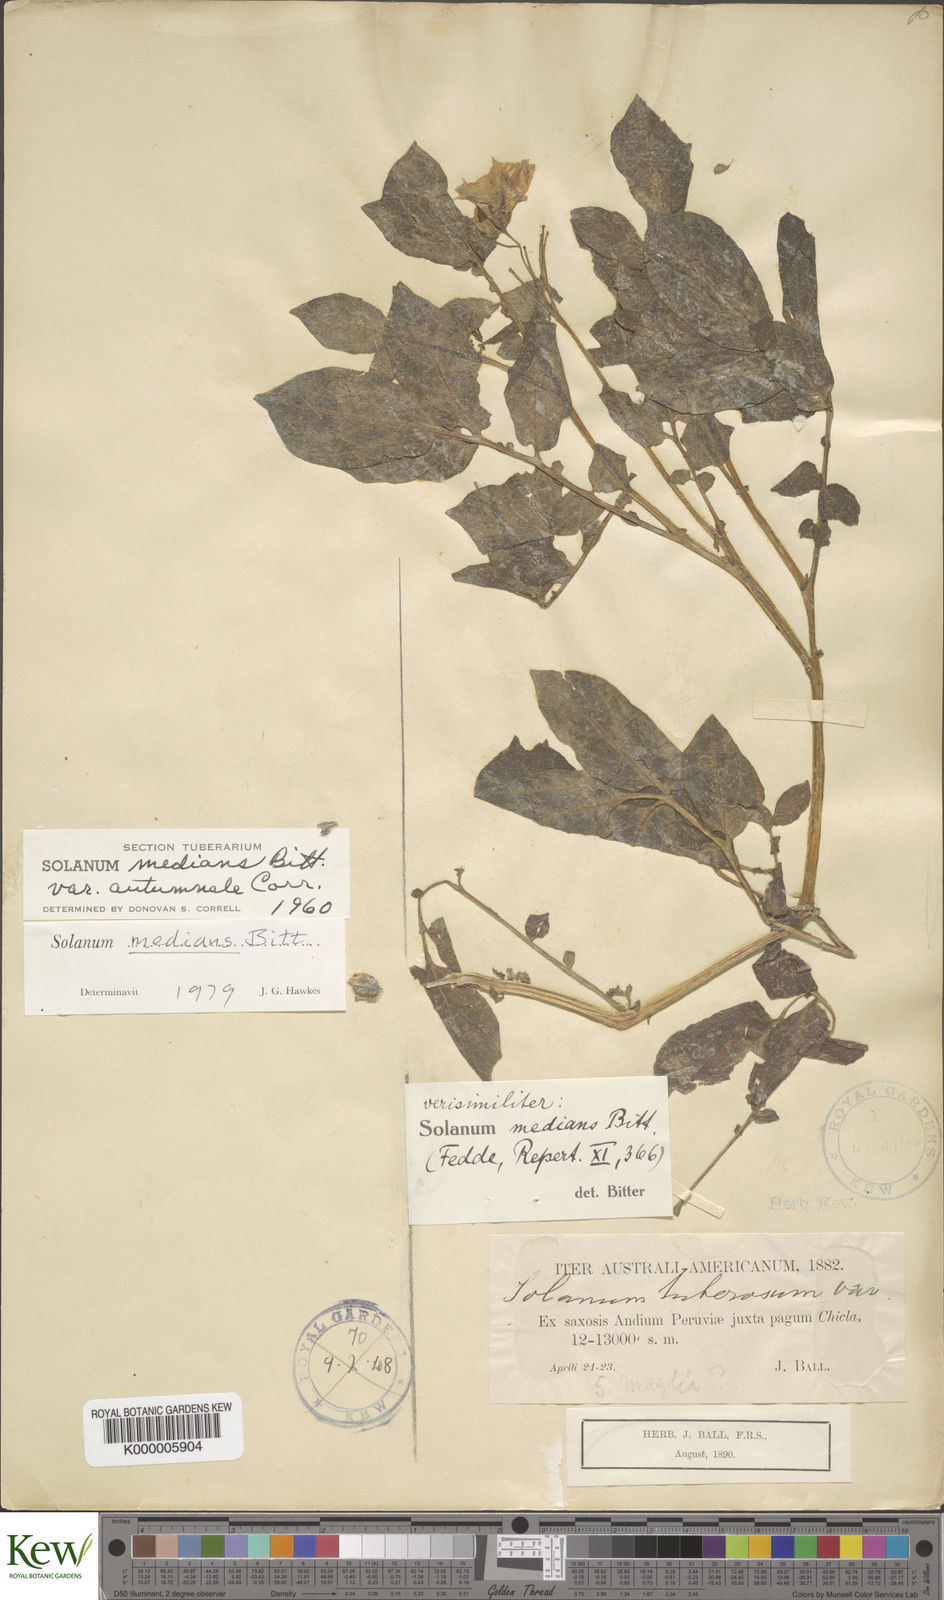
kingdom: Plantae
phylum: Tracheophyta
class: Magnoliopsida
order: Solanales
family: Solanaceae
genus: Solanum
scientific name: Solanum medians
